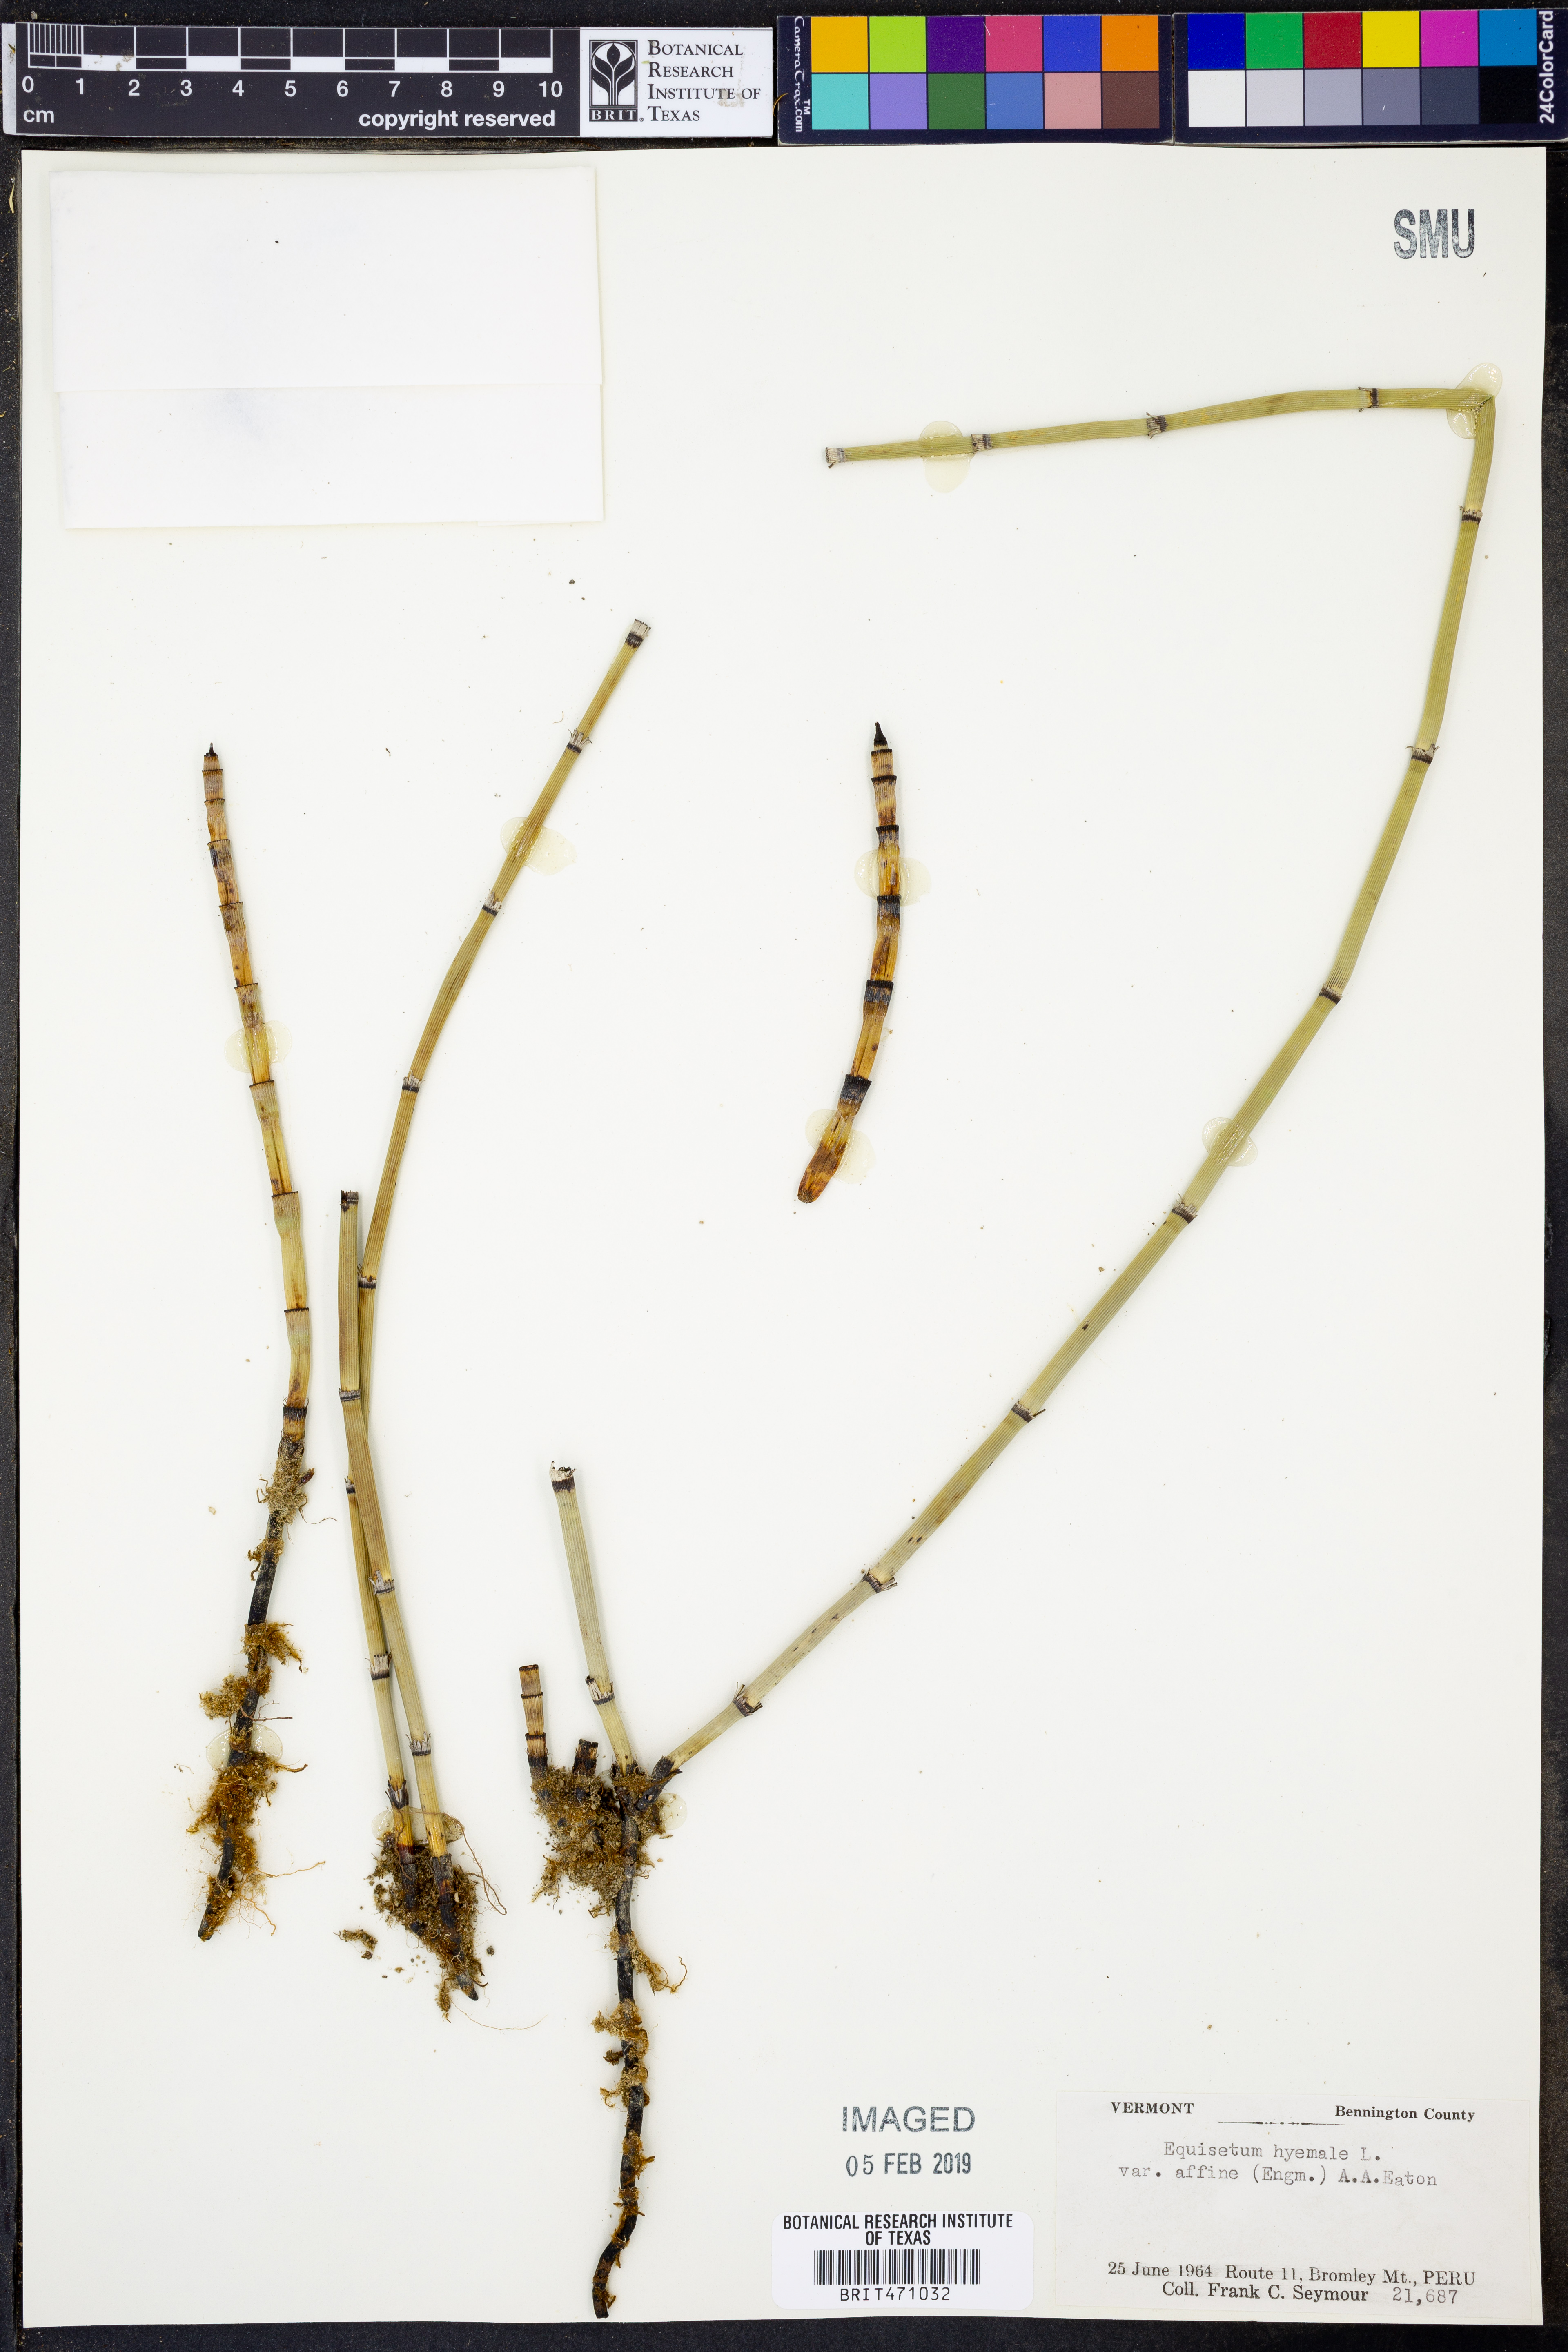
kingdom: Plantae
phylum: Tracheophyta
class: Polypodiopsida
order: Equisetales
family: Equisetaceae
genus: Equisetum
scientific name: Equisetum praealtum
